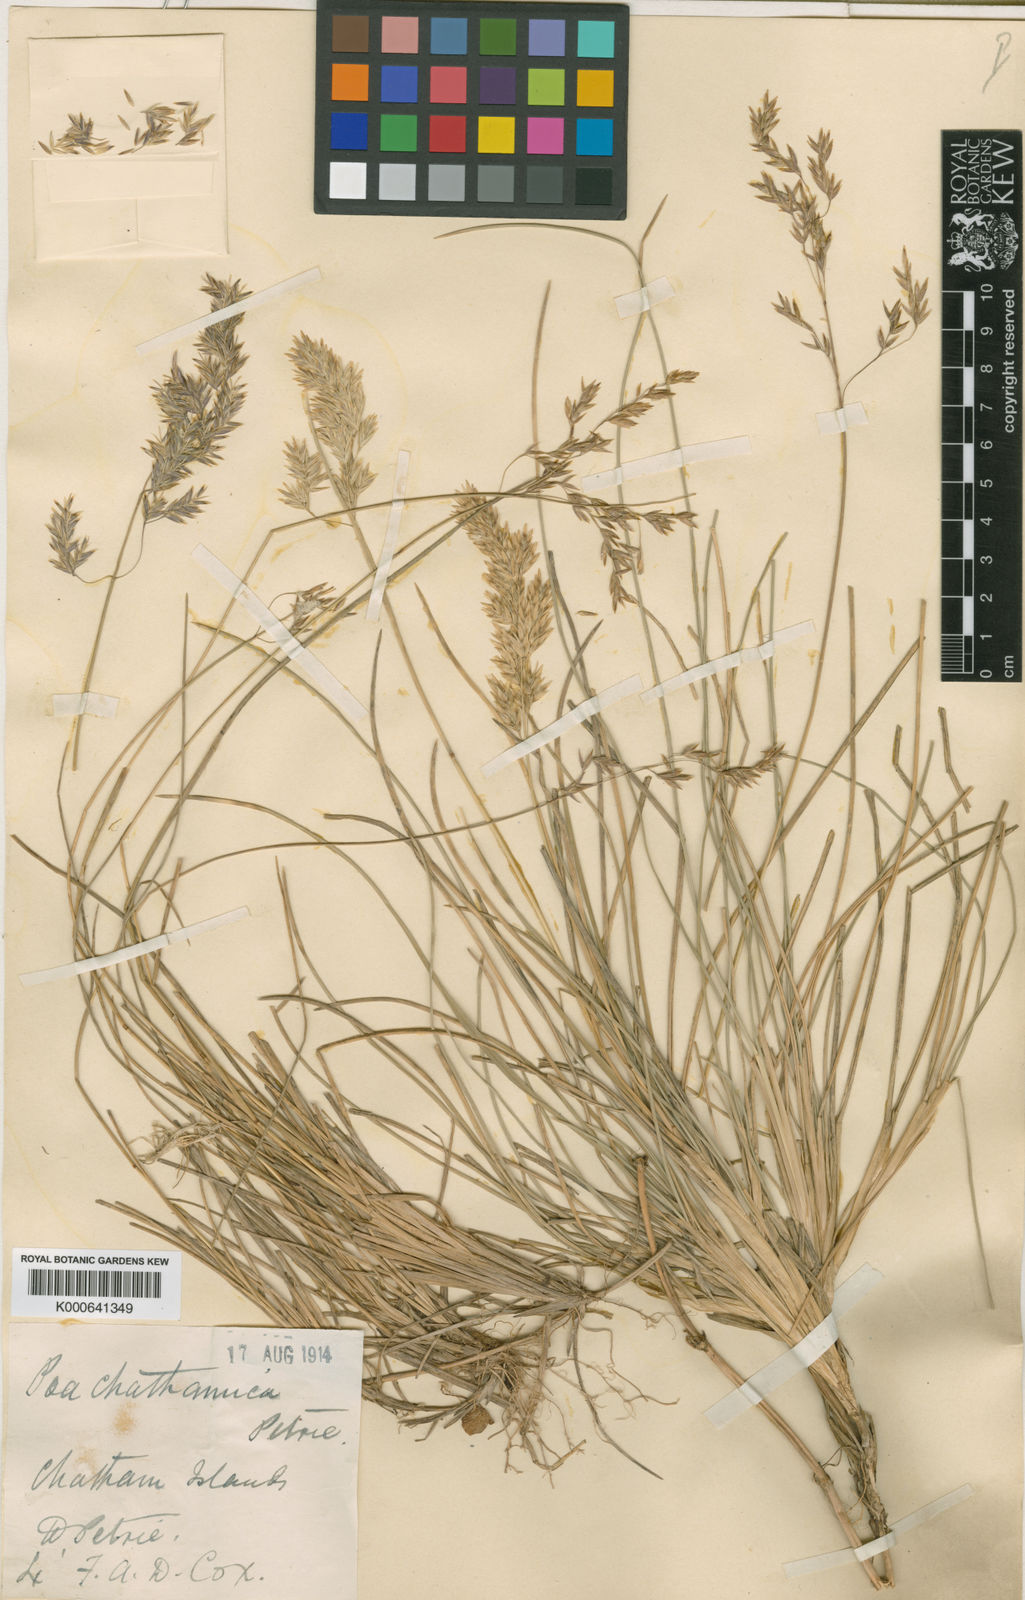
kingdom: Plantae
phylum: Tracheophyta
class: Liliopsida
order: Poales
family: Poaceae
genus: Poa
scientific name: Poa chathamica
